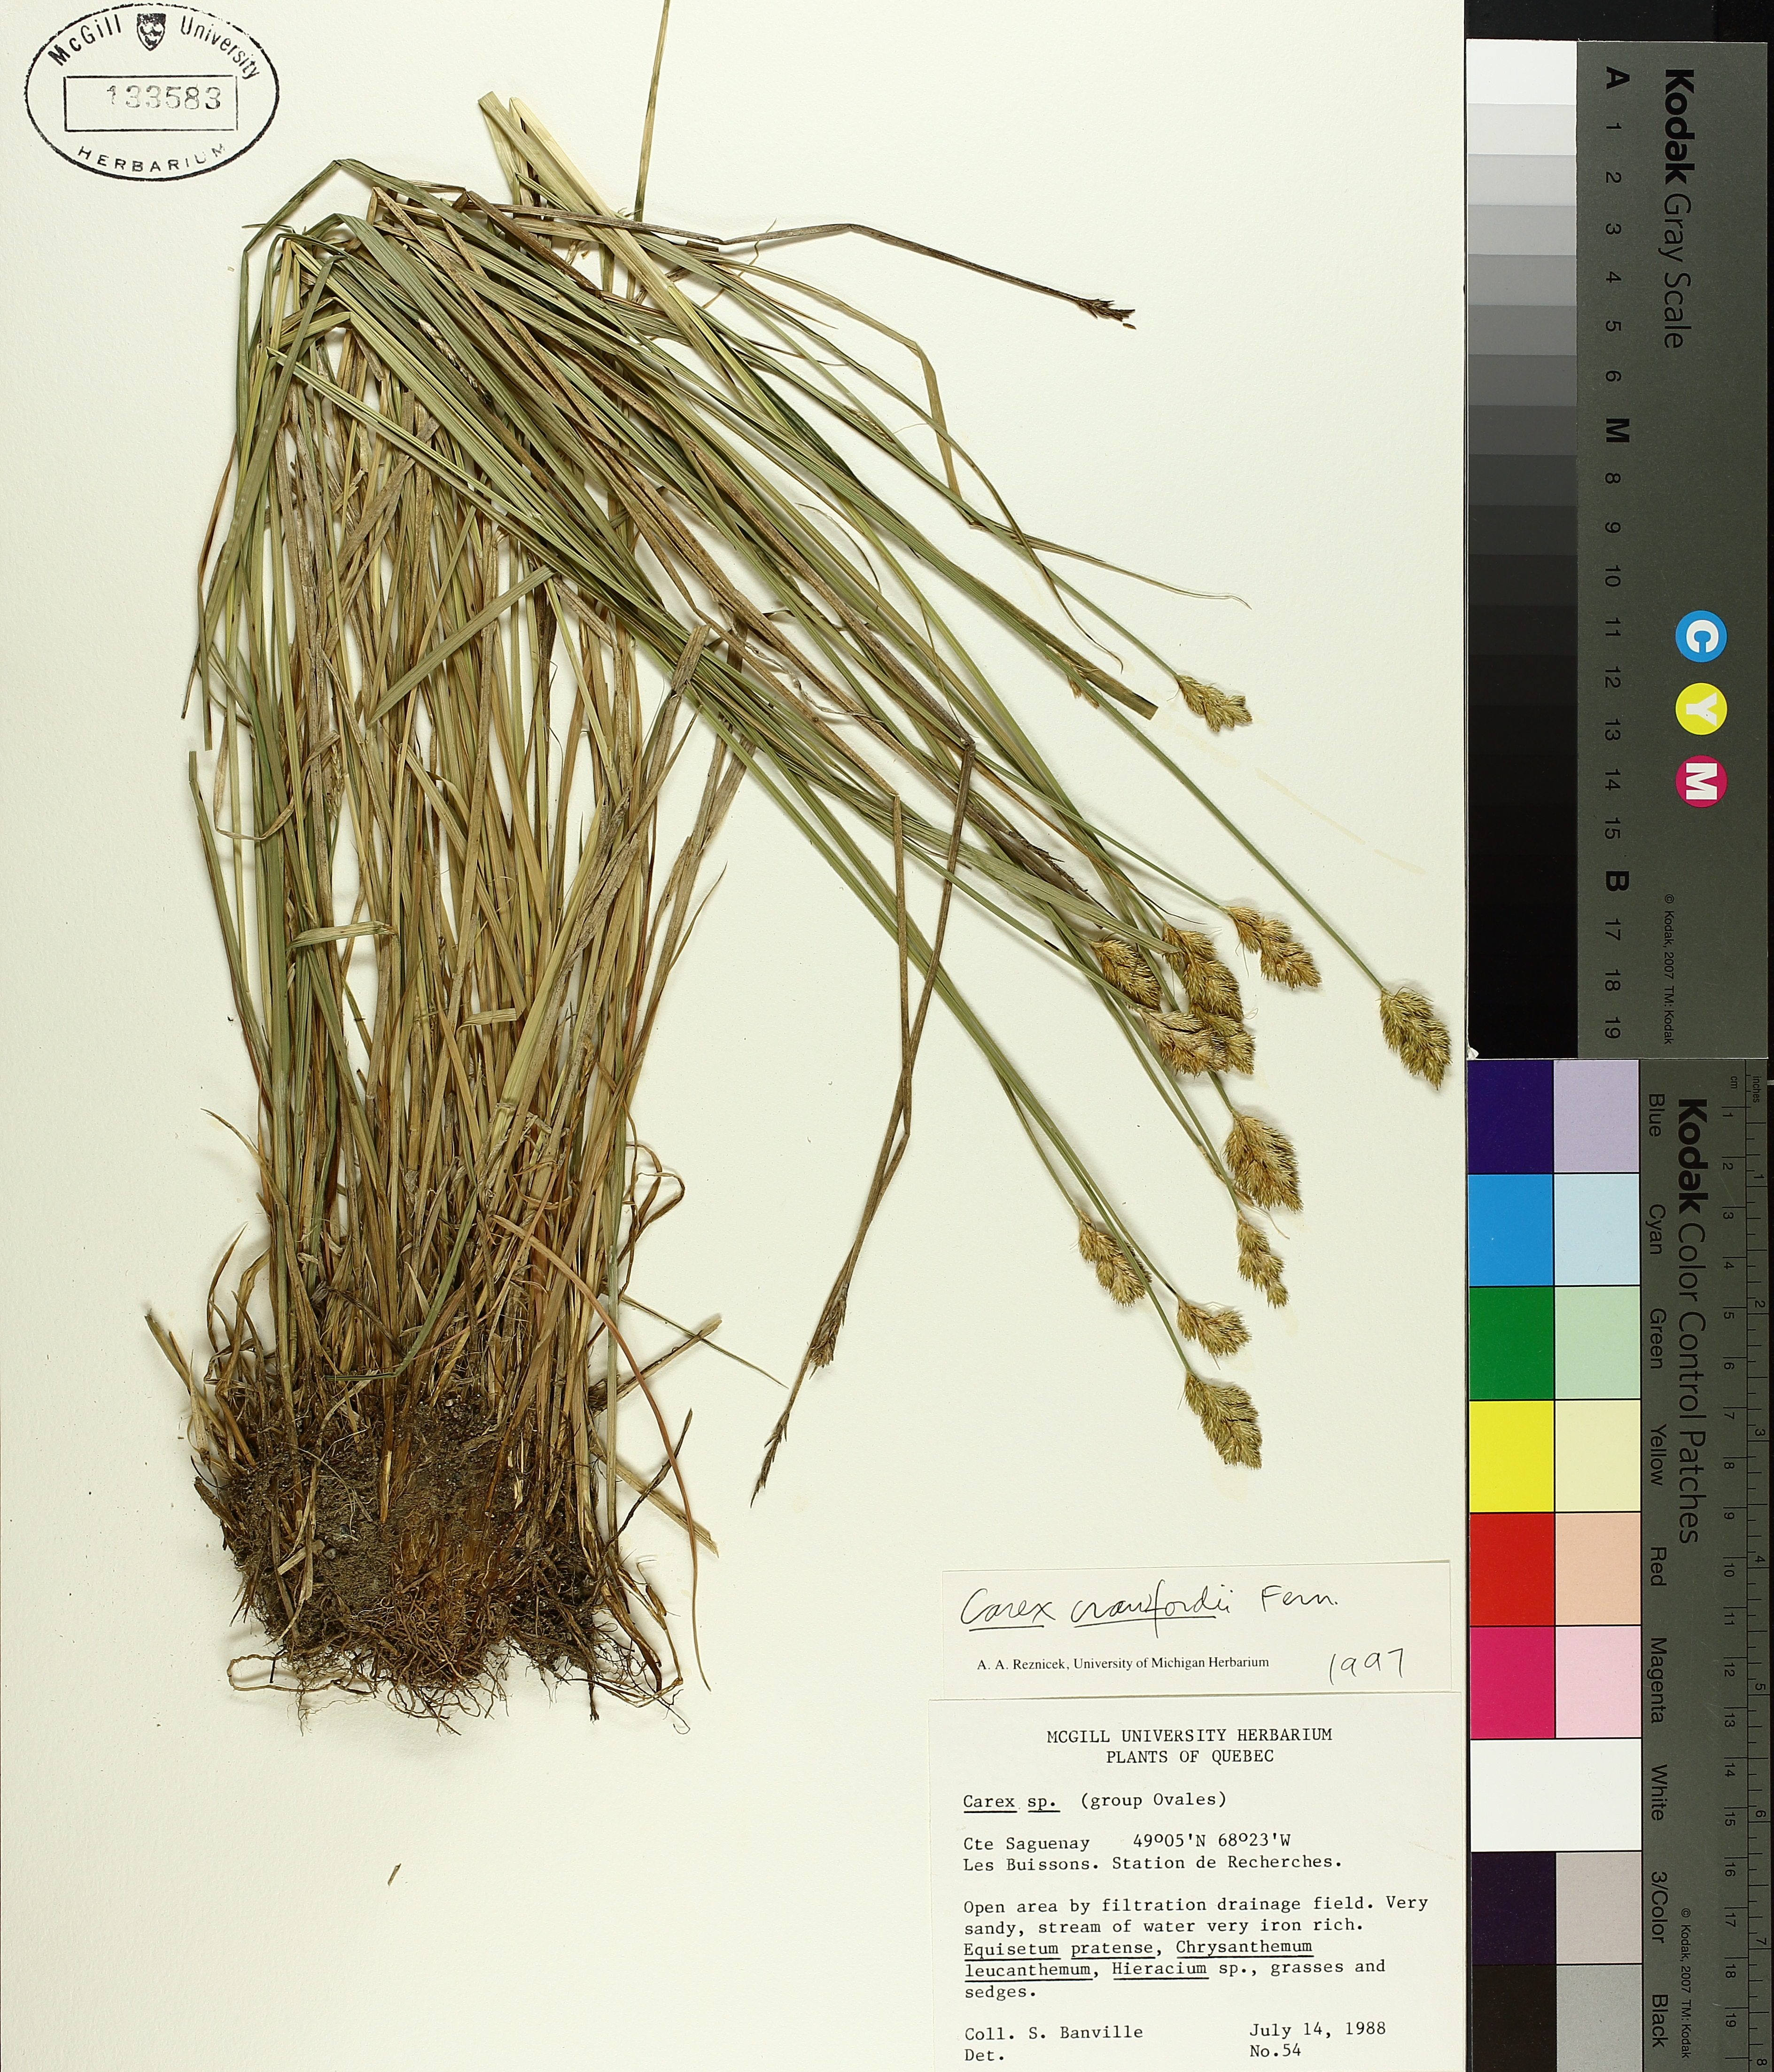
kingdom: Plantae
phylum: Tracheophyta
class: Liliopsida
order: Poales
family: Cyperaceae
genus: Carex
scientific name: Carex crawfordii
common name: Crawford's sedge
